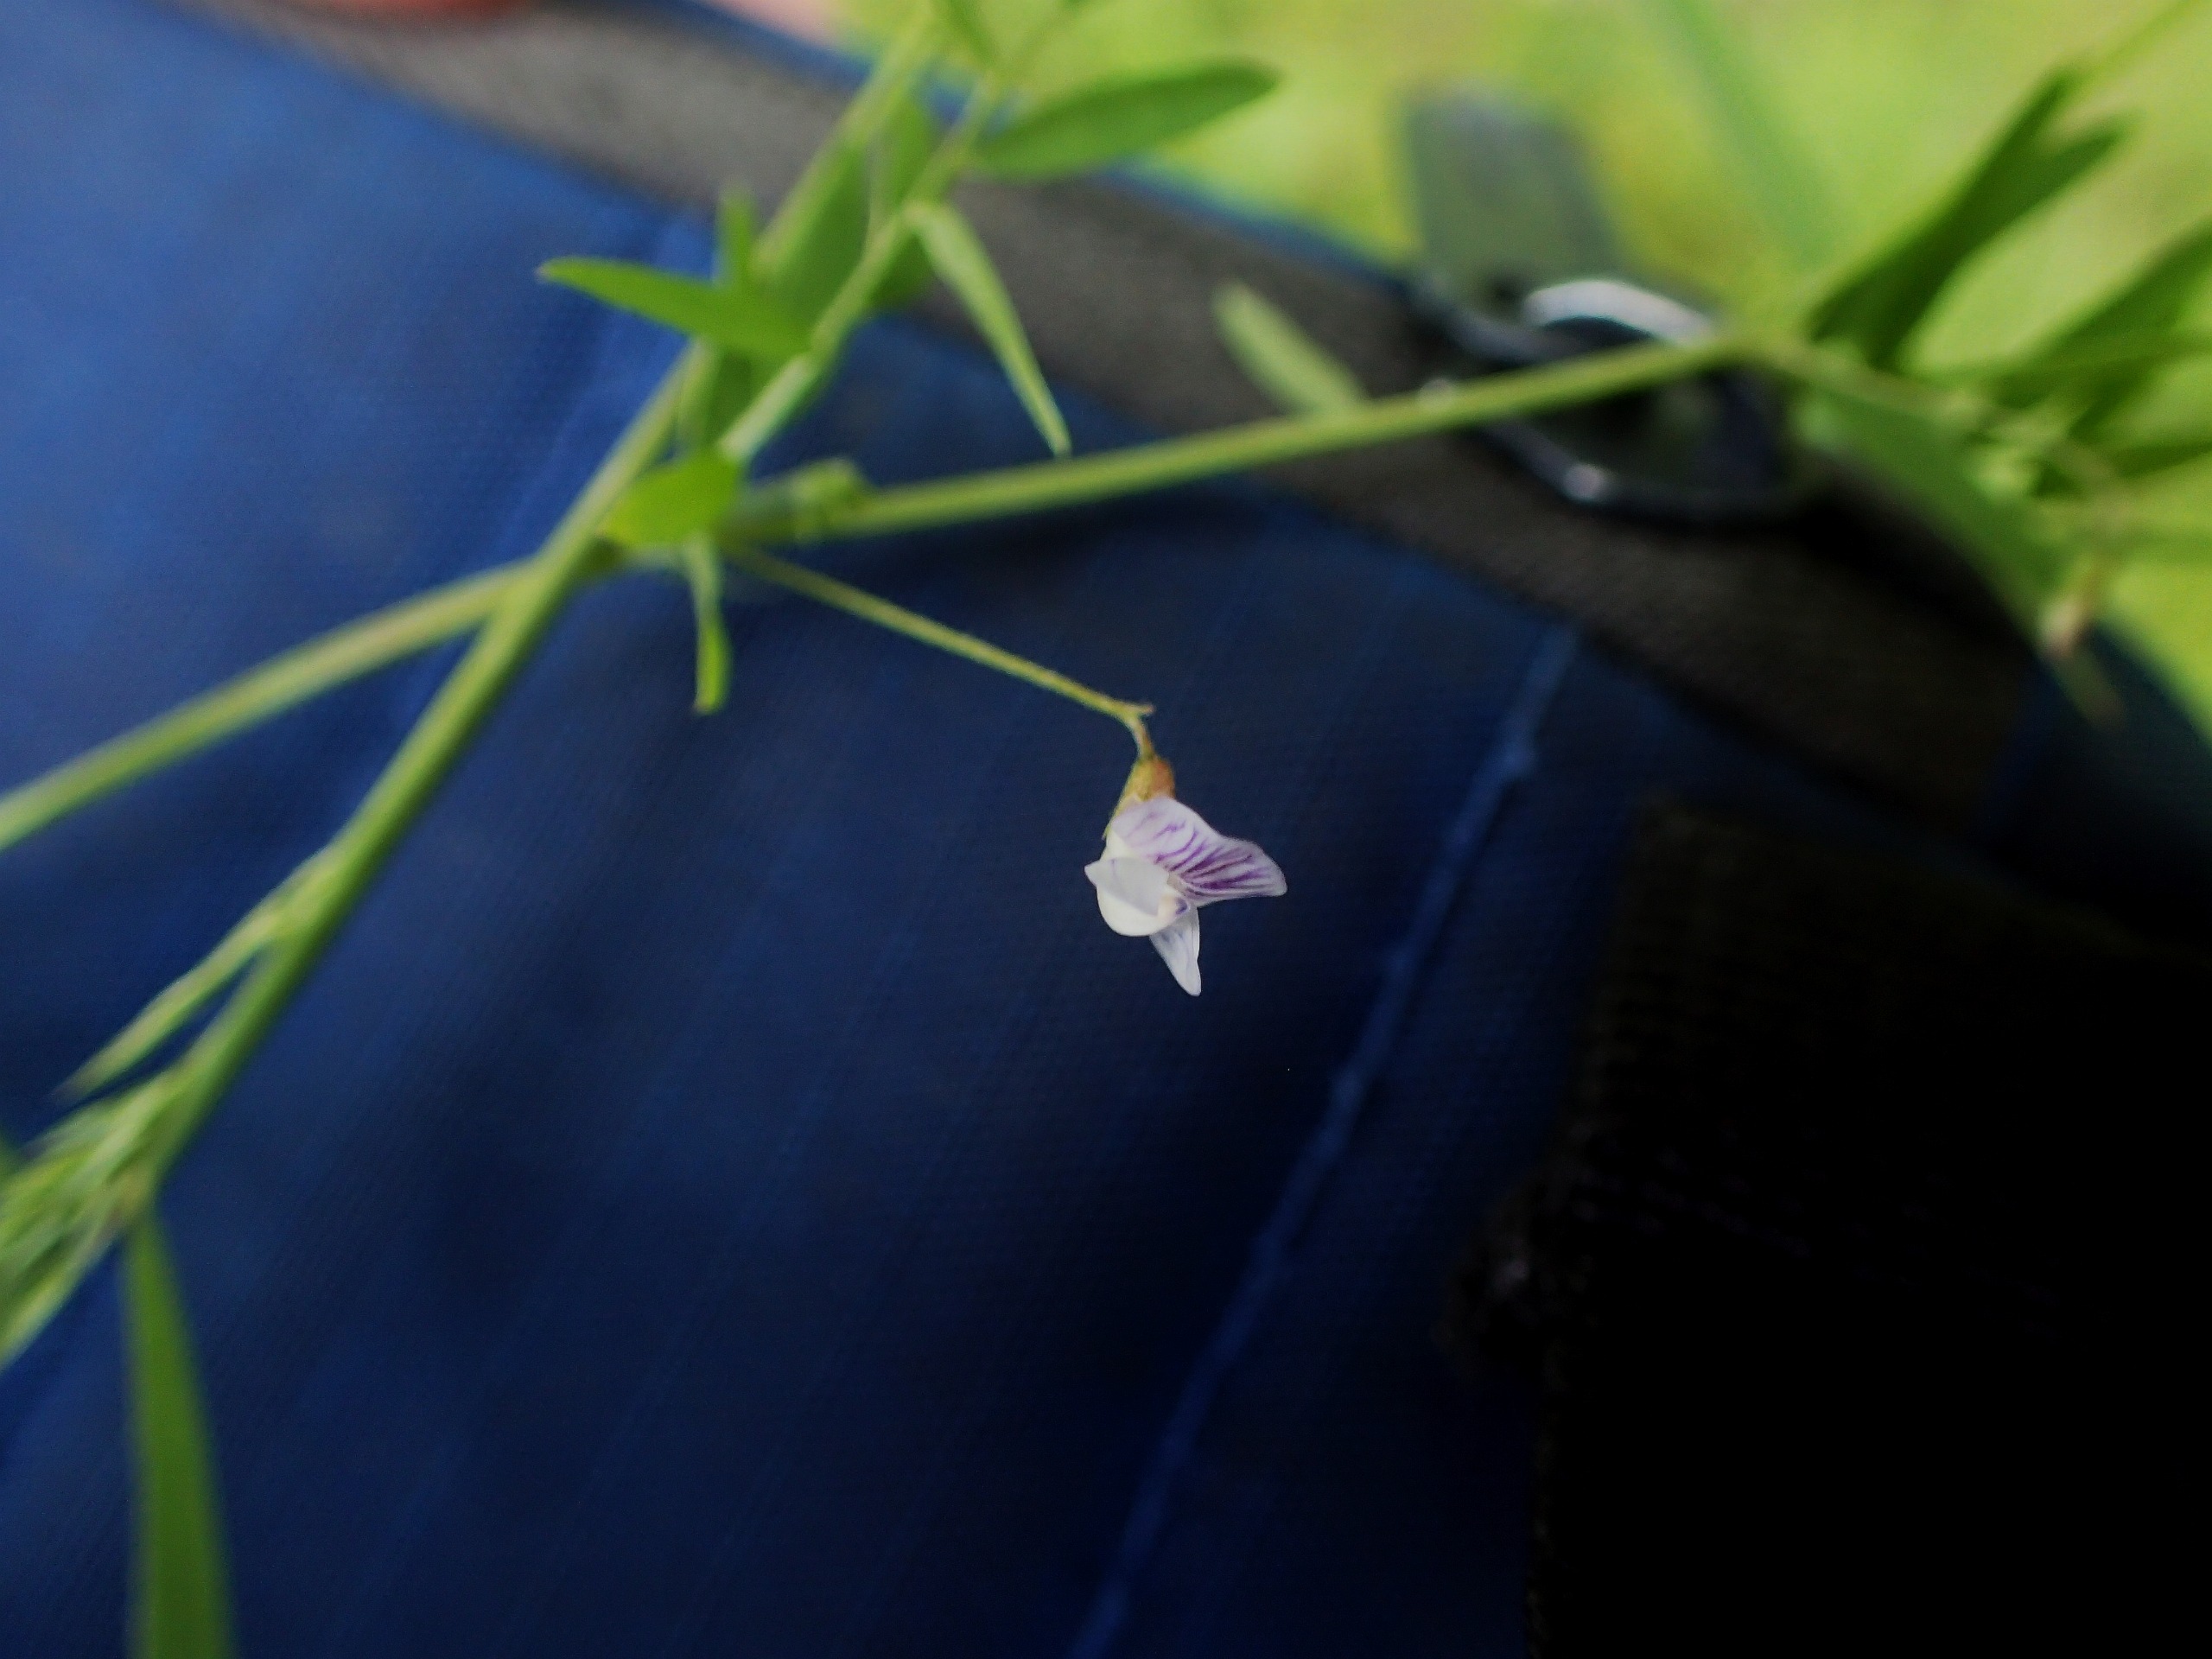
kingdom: Plantae
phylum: Tracheophyta
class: Magnoliopsida
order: Fabales
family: Fabaceae
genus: Vicia
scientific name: Vicia tetrasperma
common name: Tadder-vikke
